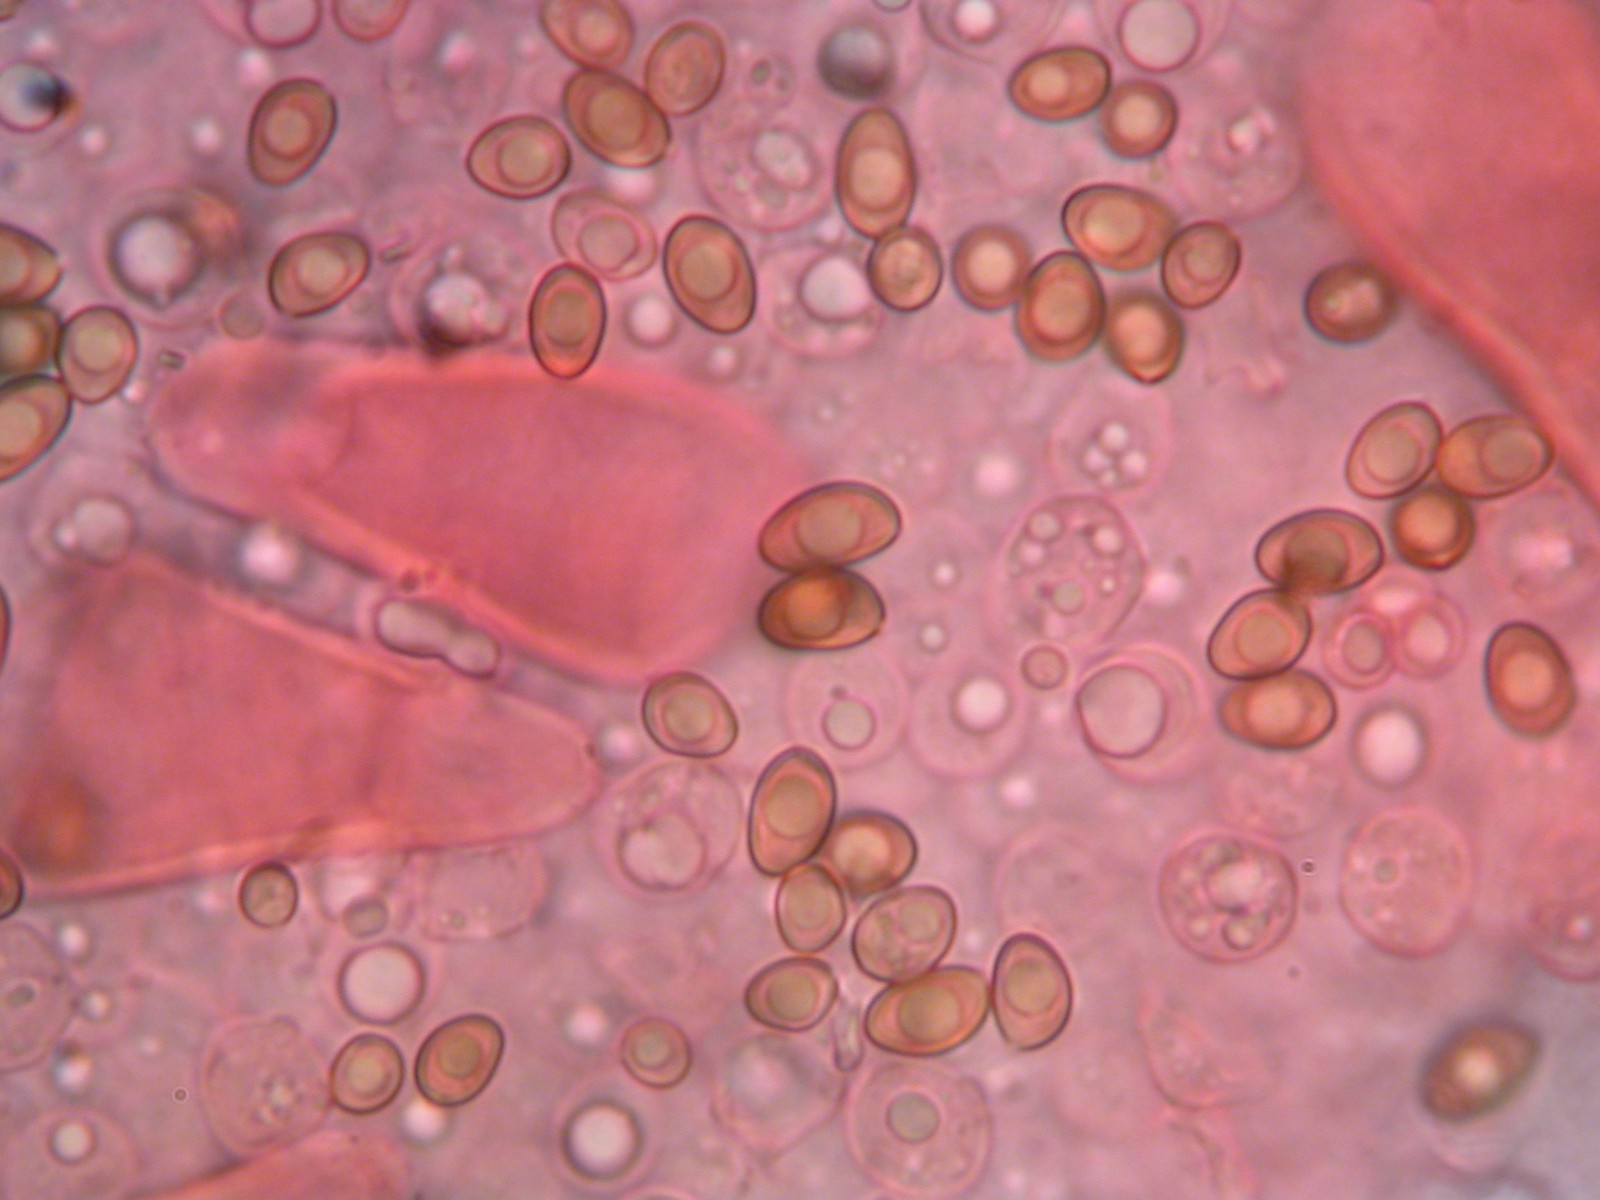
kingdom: Fungi
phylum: Basidiomycota
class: Agaricomycetes
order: Agaricales
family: Inocybaceae
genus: Inocybe
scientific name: Inocybe
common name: trævlhat
